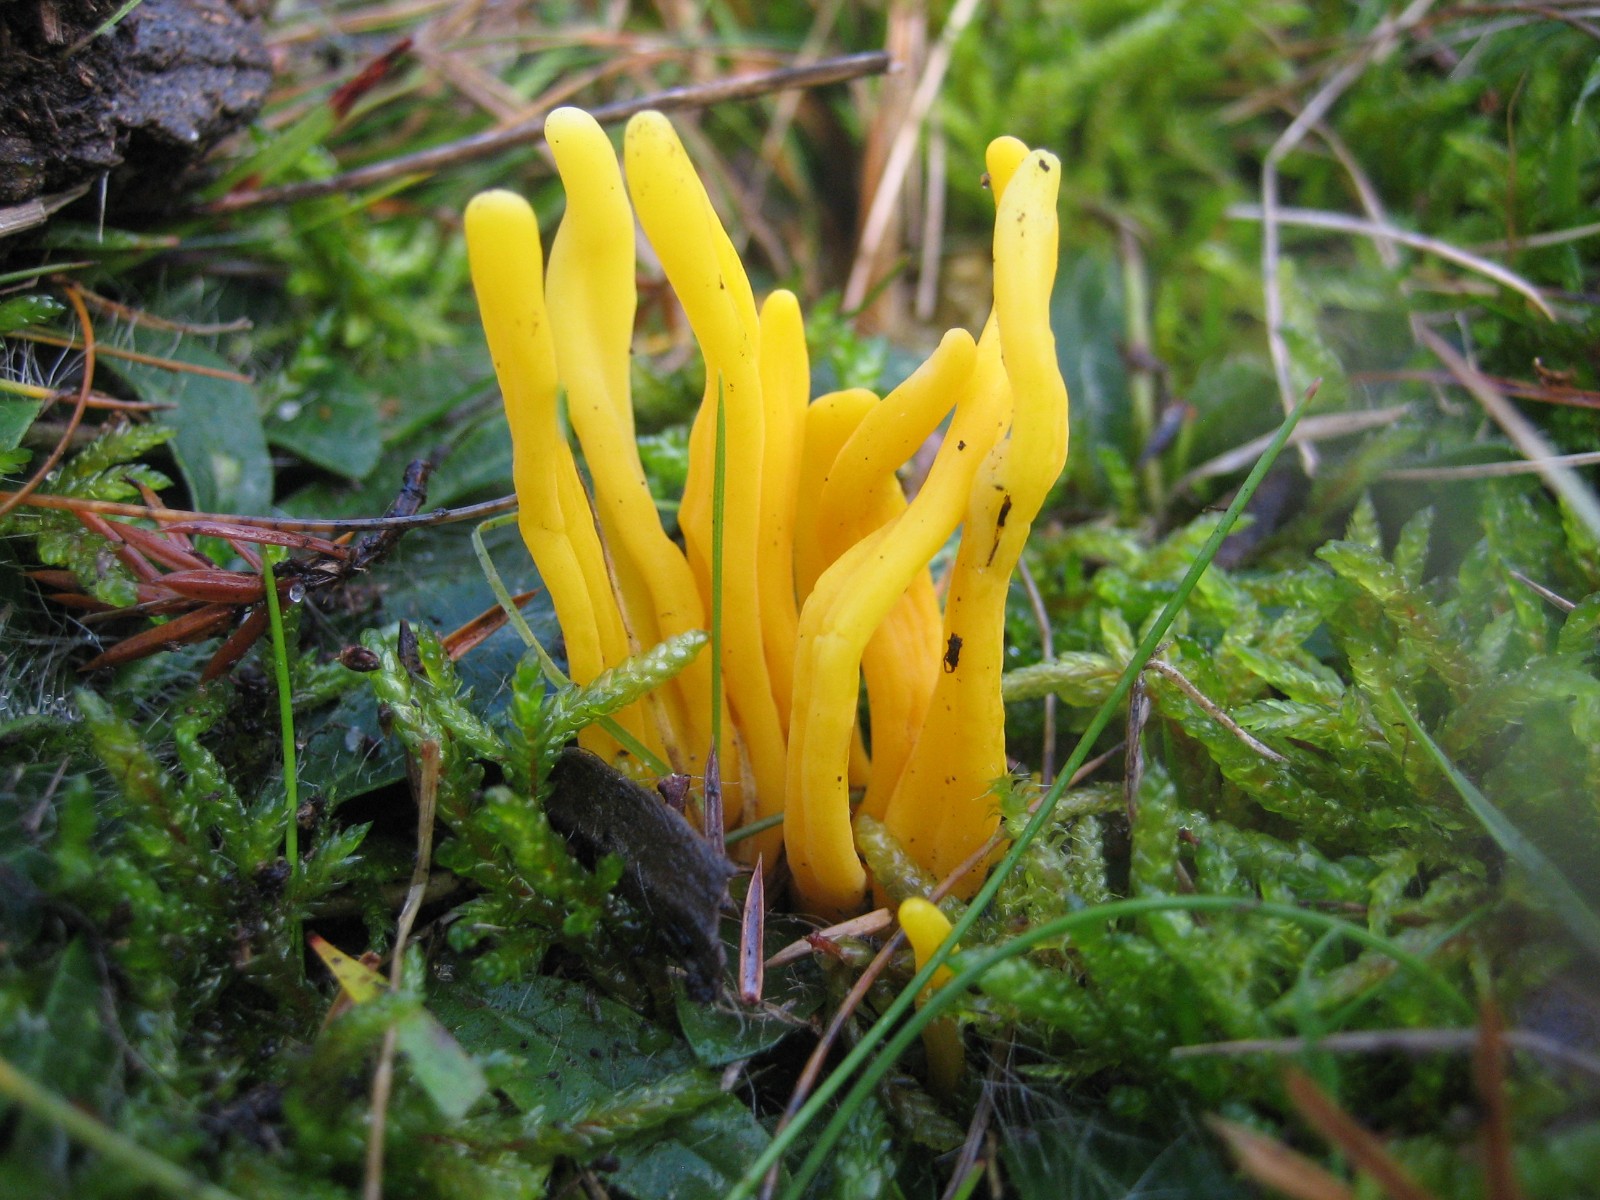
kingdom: Fungi
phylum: Basidiomycota
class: Agaricomycetes
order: Agaricales
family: Clavariaceae
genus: Clavulinopsis
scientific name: Clavulinopsis
